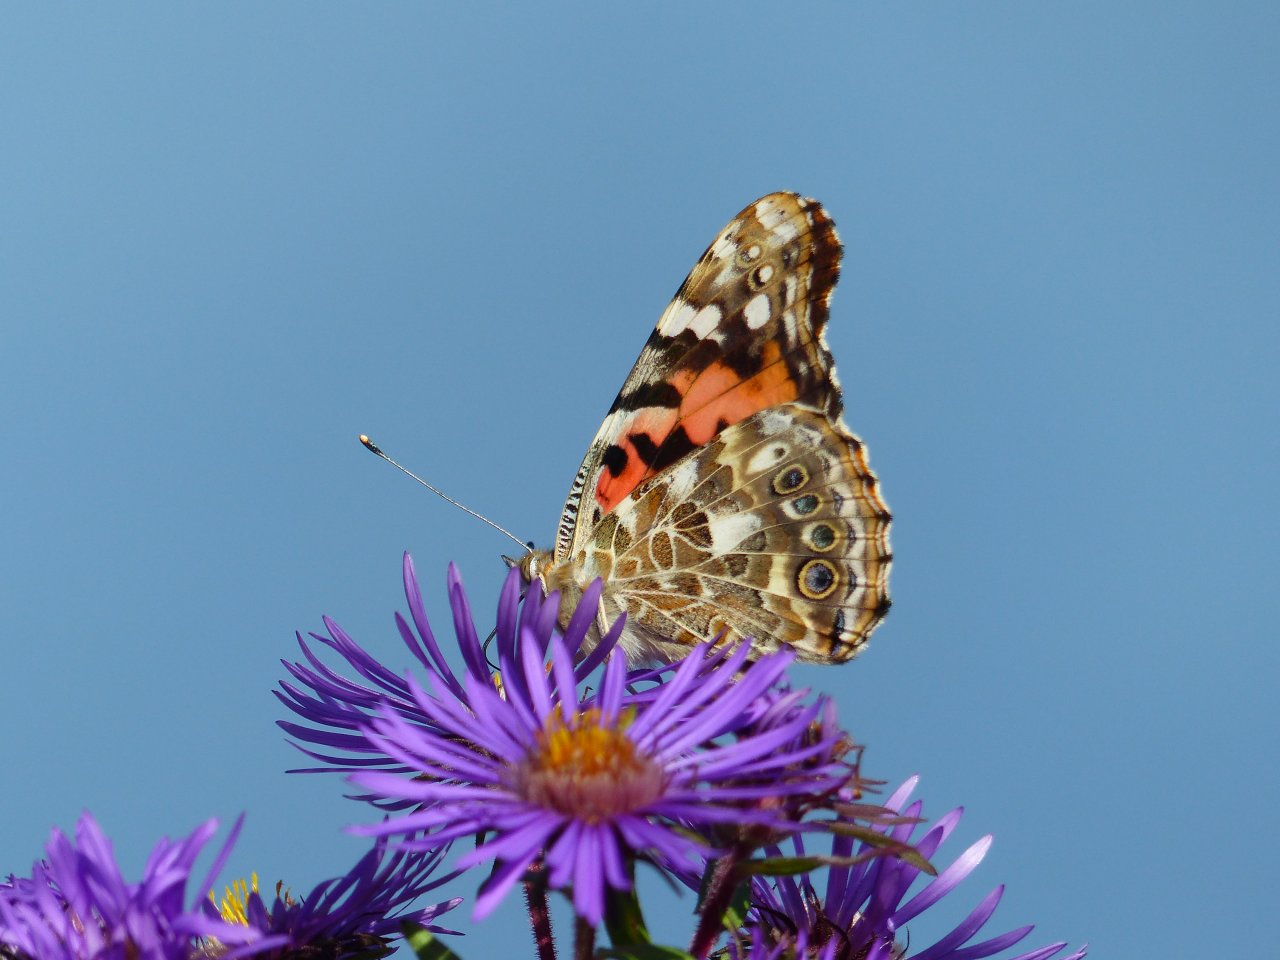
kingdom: Animalia
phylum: Arthropoda
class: Insecta
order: Lepidoptera
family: Nymphalidae
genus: Vanessa
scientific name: Vanessa cardui
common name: Painted Lady
